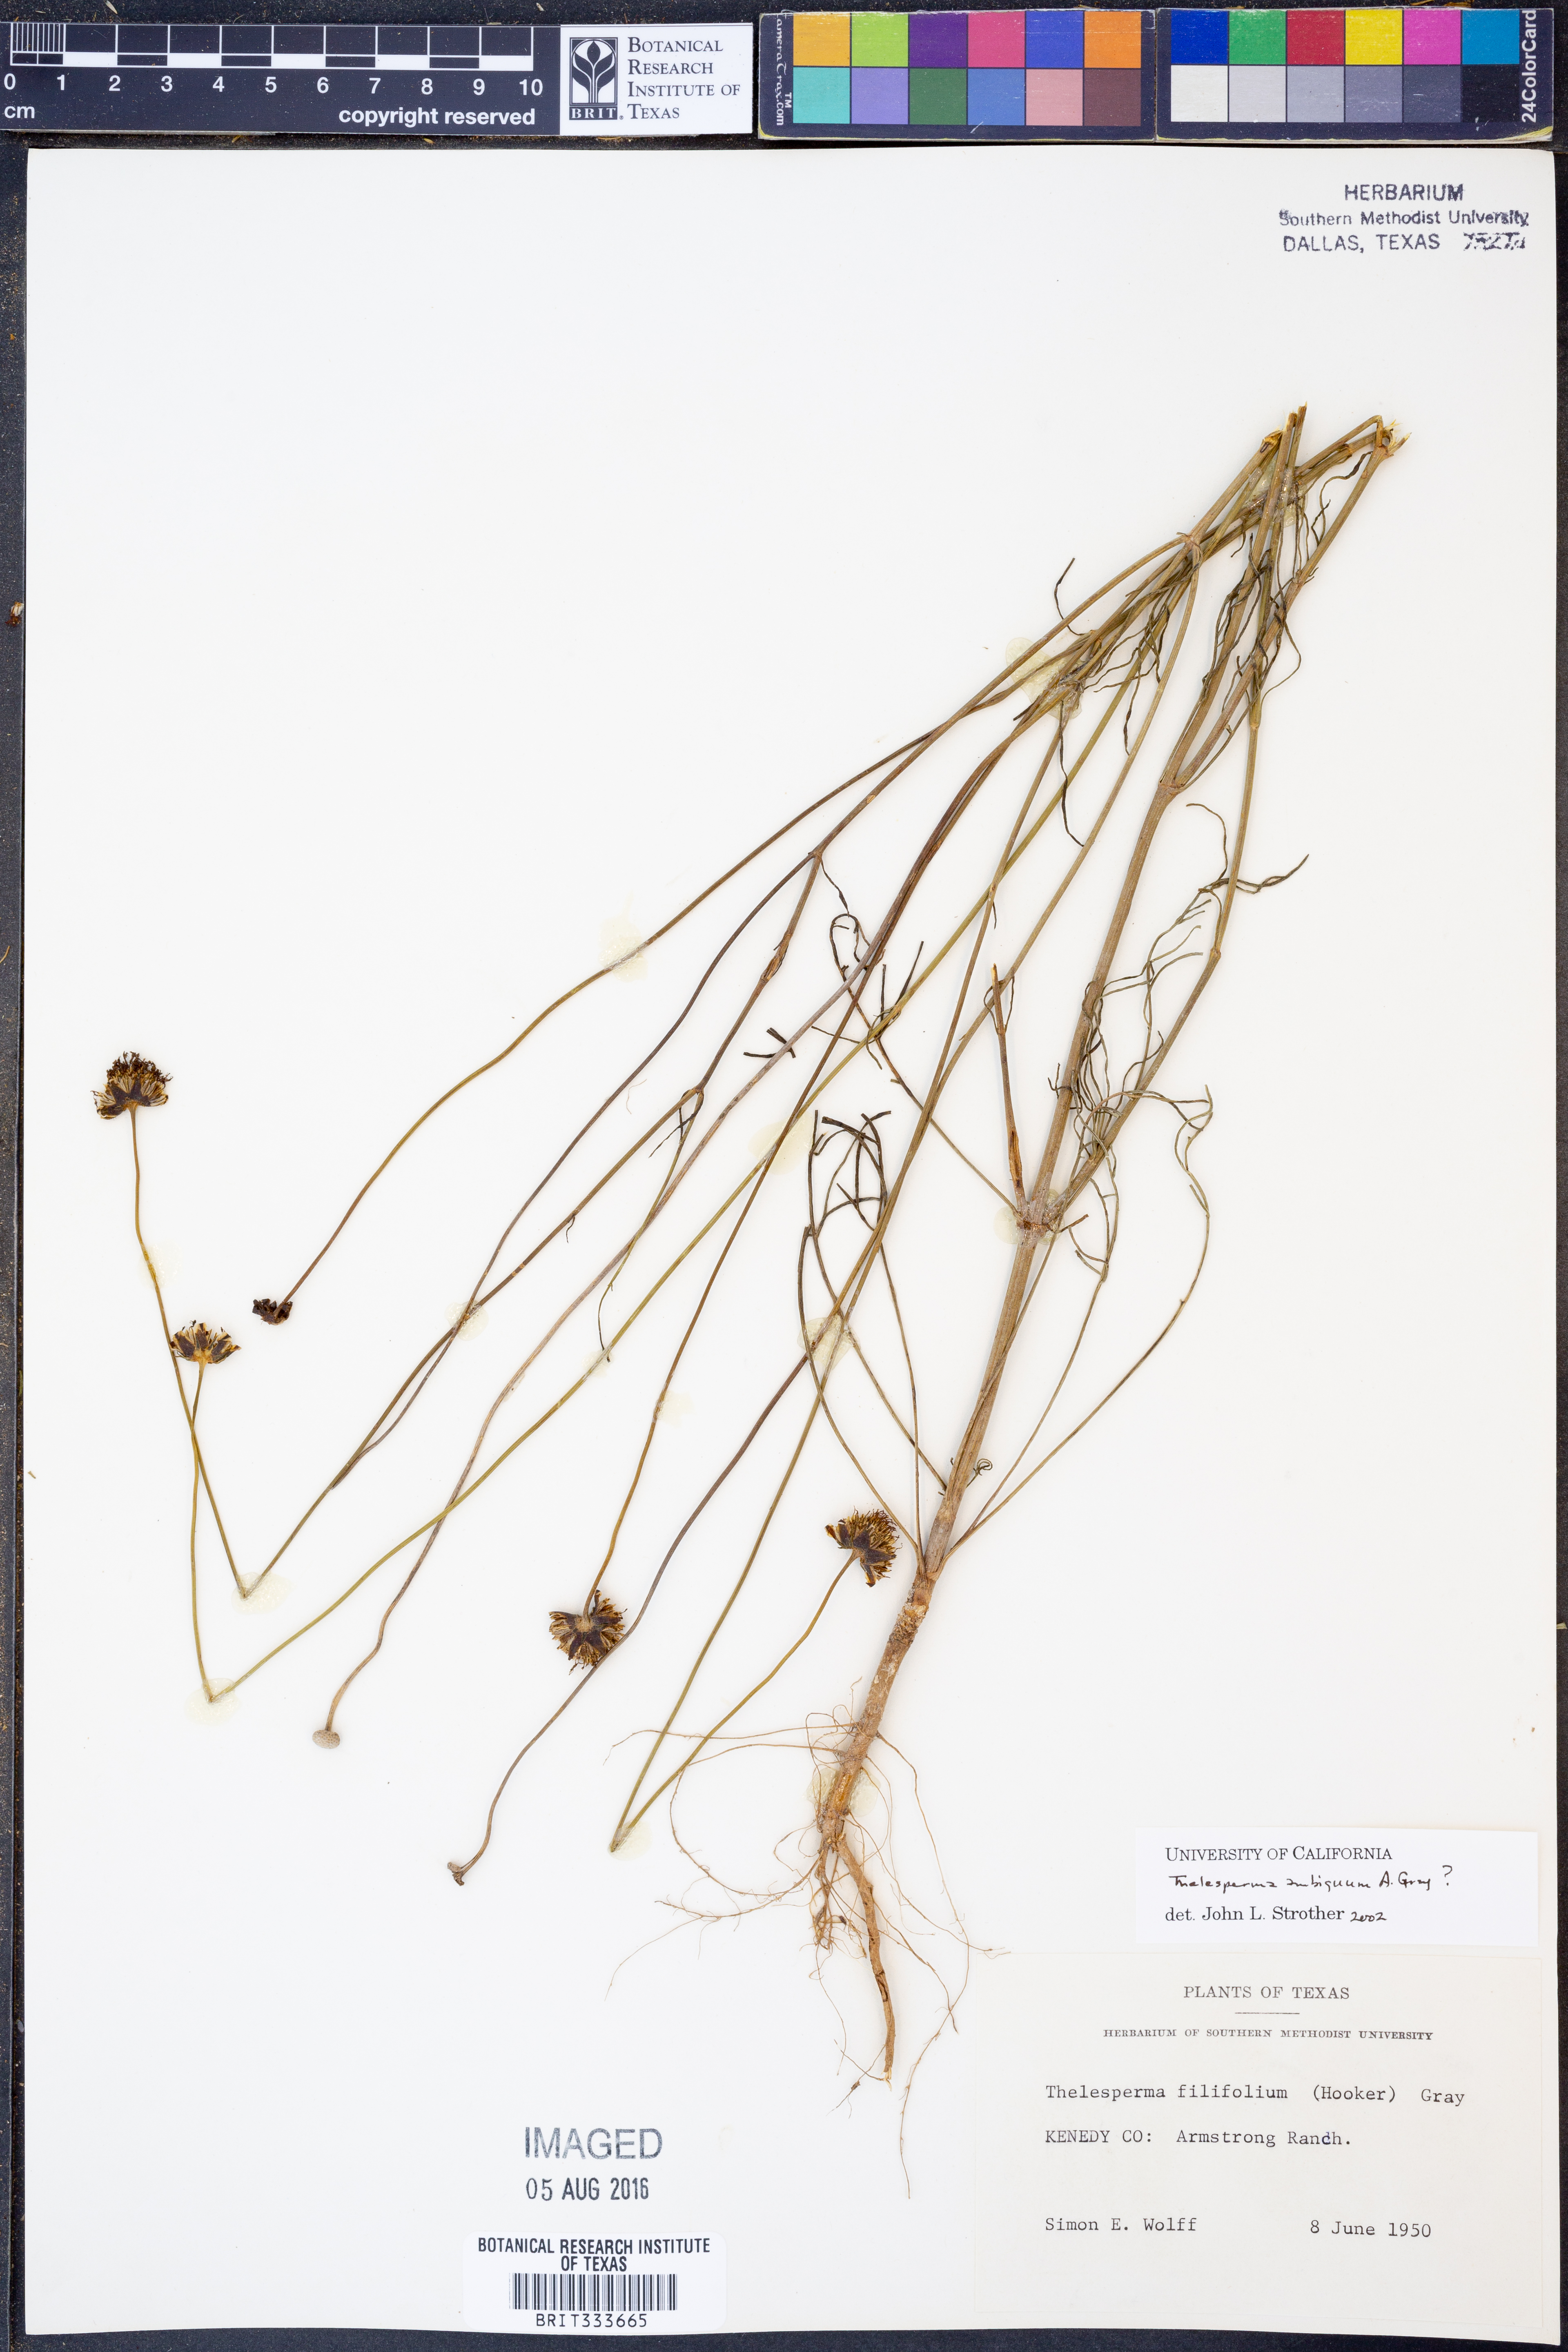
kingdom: Plantae
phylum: Tracheophyta
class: Magnoliopsida
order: Asterales
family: Asteraceae
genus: Thelesperma
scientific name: Thelesperma ambiguum
